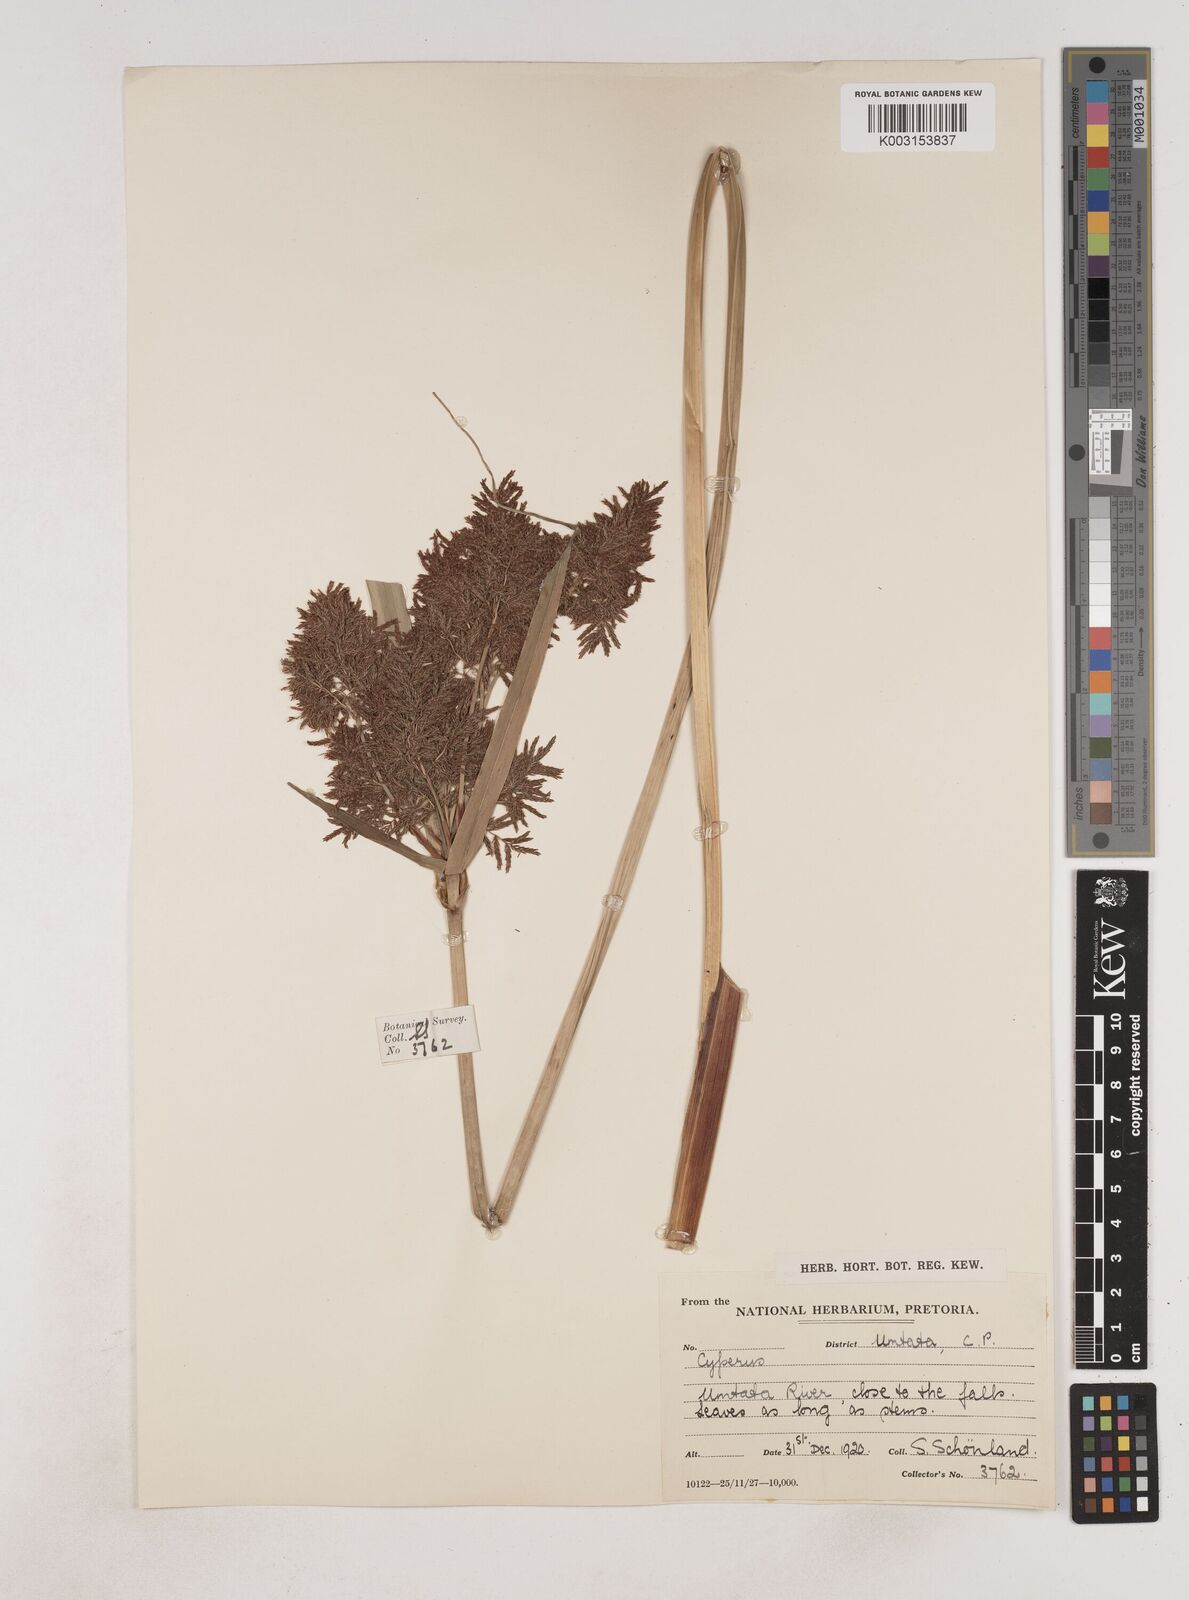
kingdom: Plantae
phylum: Tracheophyta
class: Liliopsida
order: Poales
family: Cyperaceae
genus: Cyperus
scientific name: Cyperus
